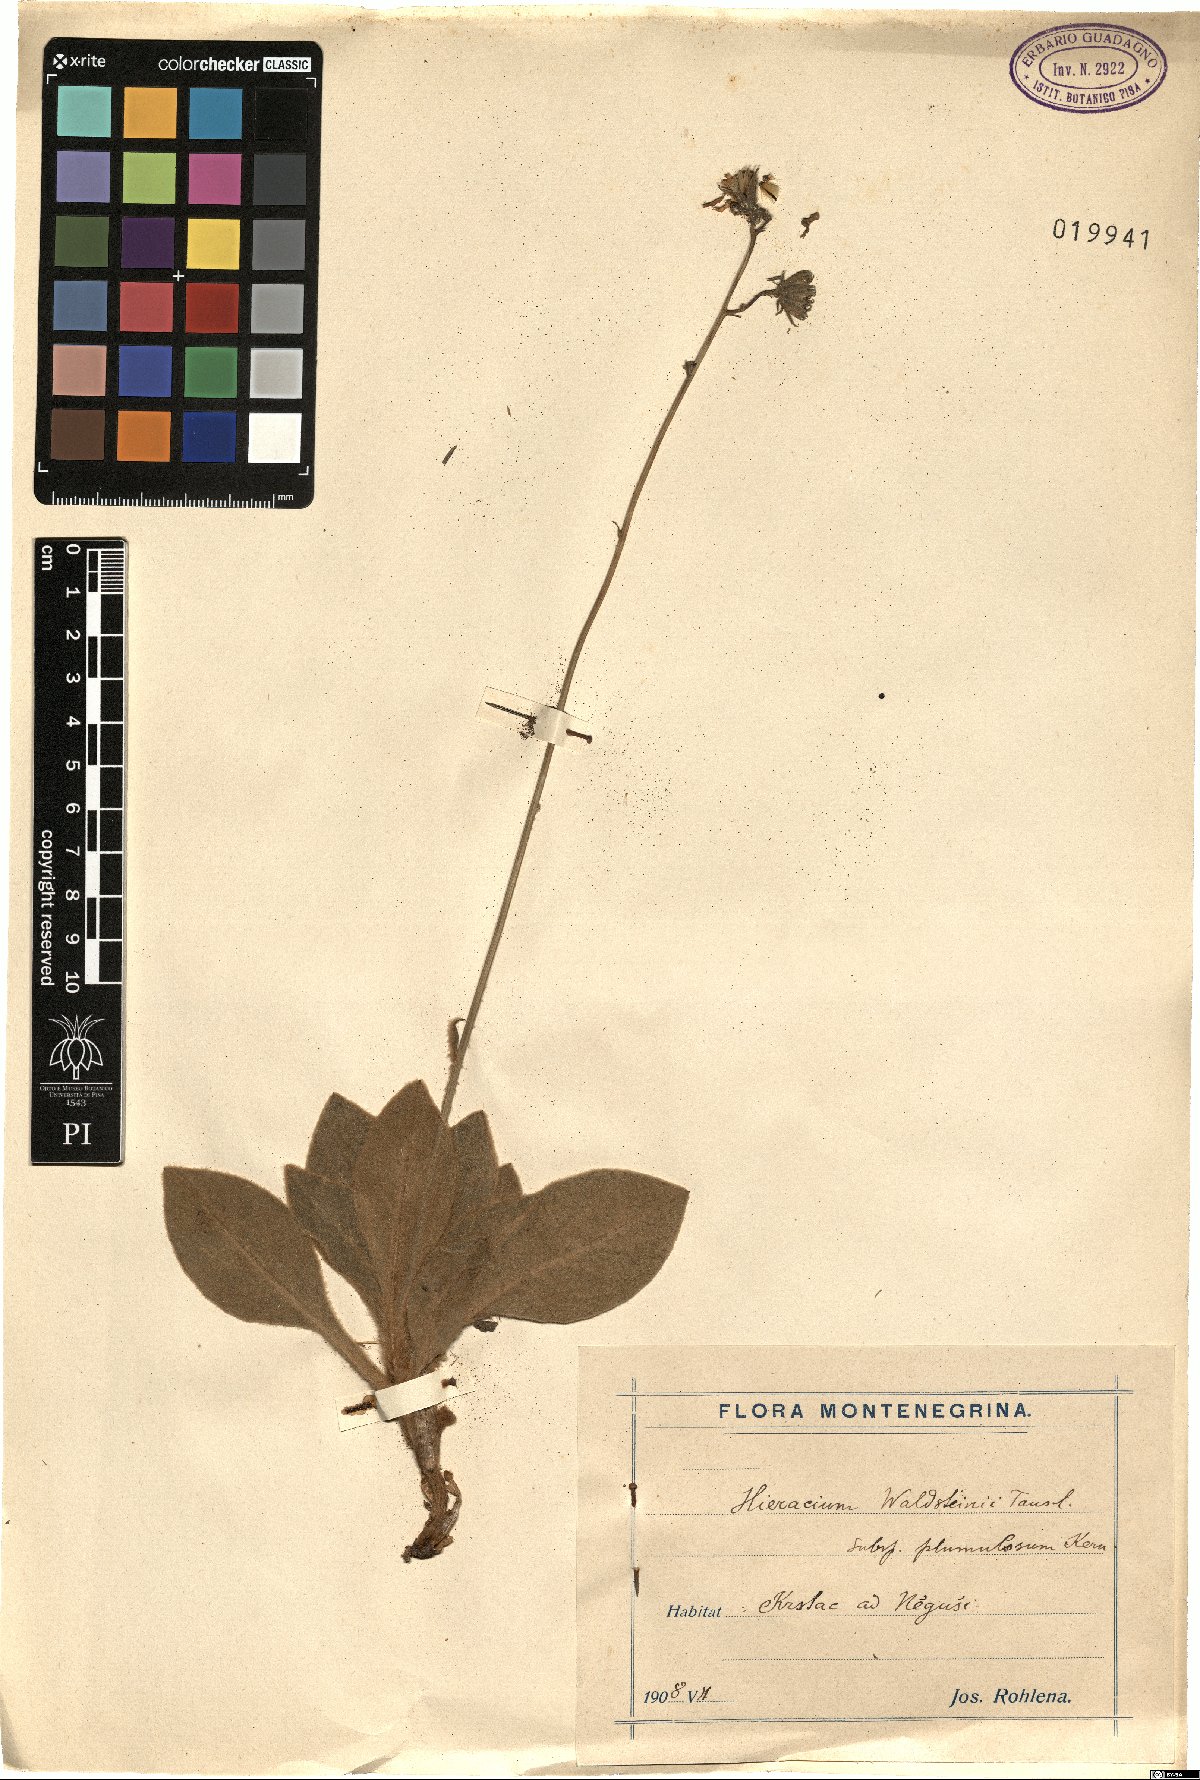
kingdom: Plantae
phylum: Tracheophyta
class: Magnoliopsida
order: Asterales
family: Asteraceae
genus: Hieracium
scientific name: Hieracium plumulosum
